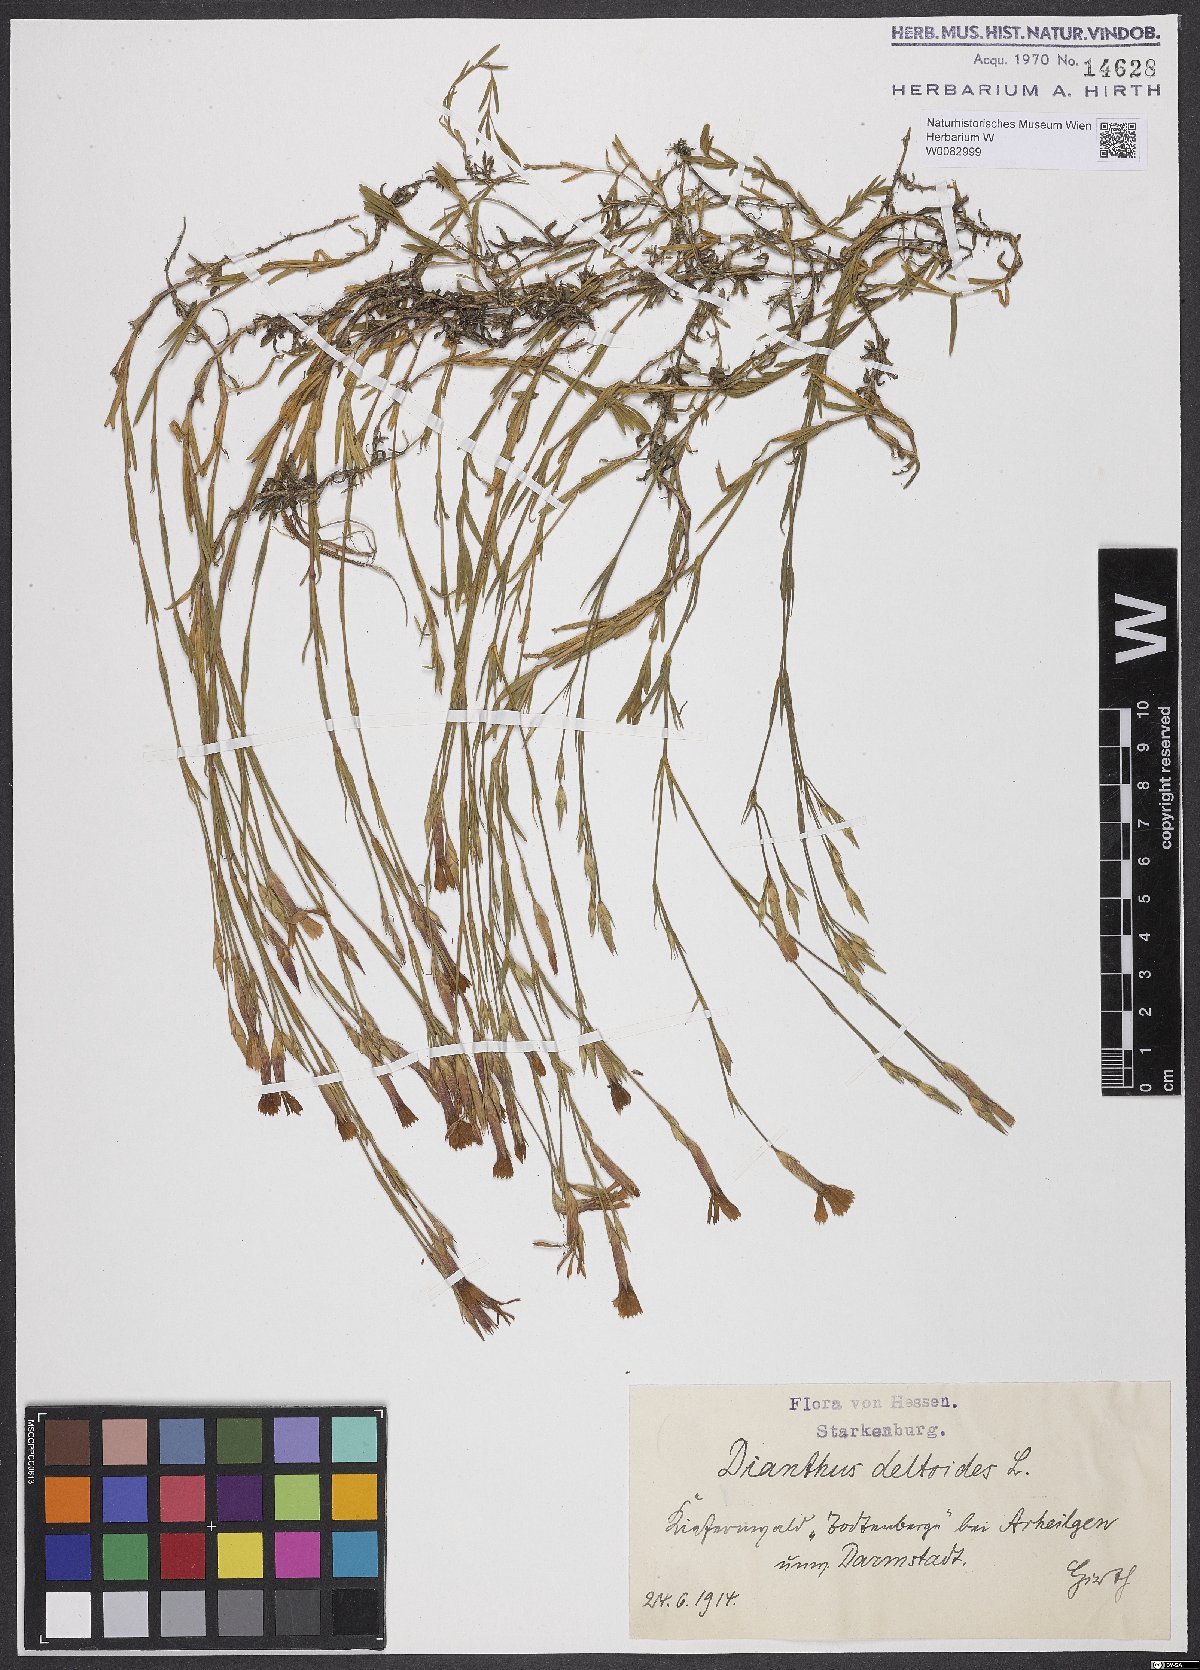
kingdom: Plantae
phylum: Tracheophyta
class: Magnoliopsida
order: Caryophyllales
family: Caryophyllaceae
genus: Dianthus
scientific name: Dianthus deltoides
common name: Maiden pink
